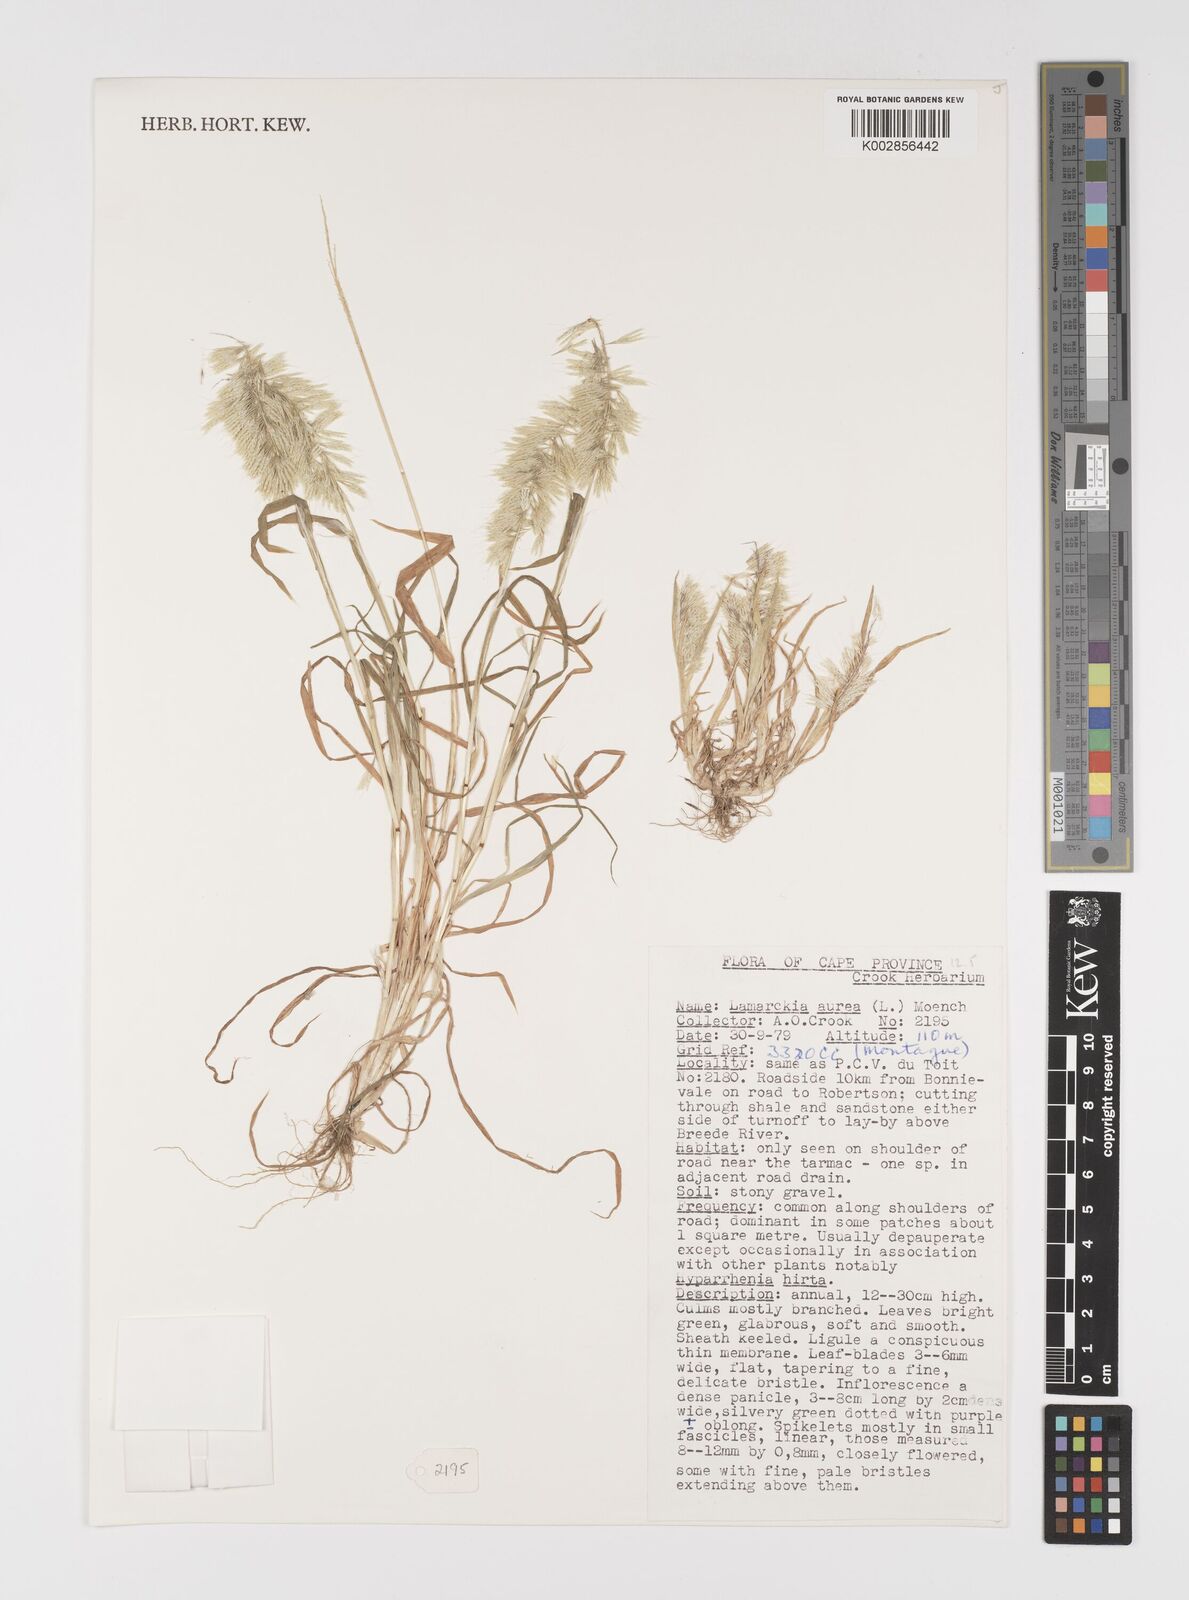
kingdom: Plantae
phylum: Tracheophyta
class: Liliopsida
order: Poales
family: Poaceae
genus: Lamarckia
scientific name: Lamarckia aurea
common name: Golden dog's-tail
